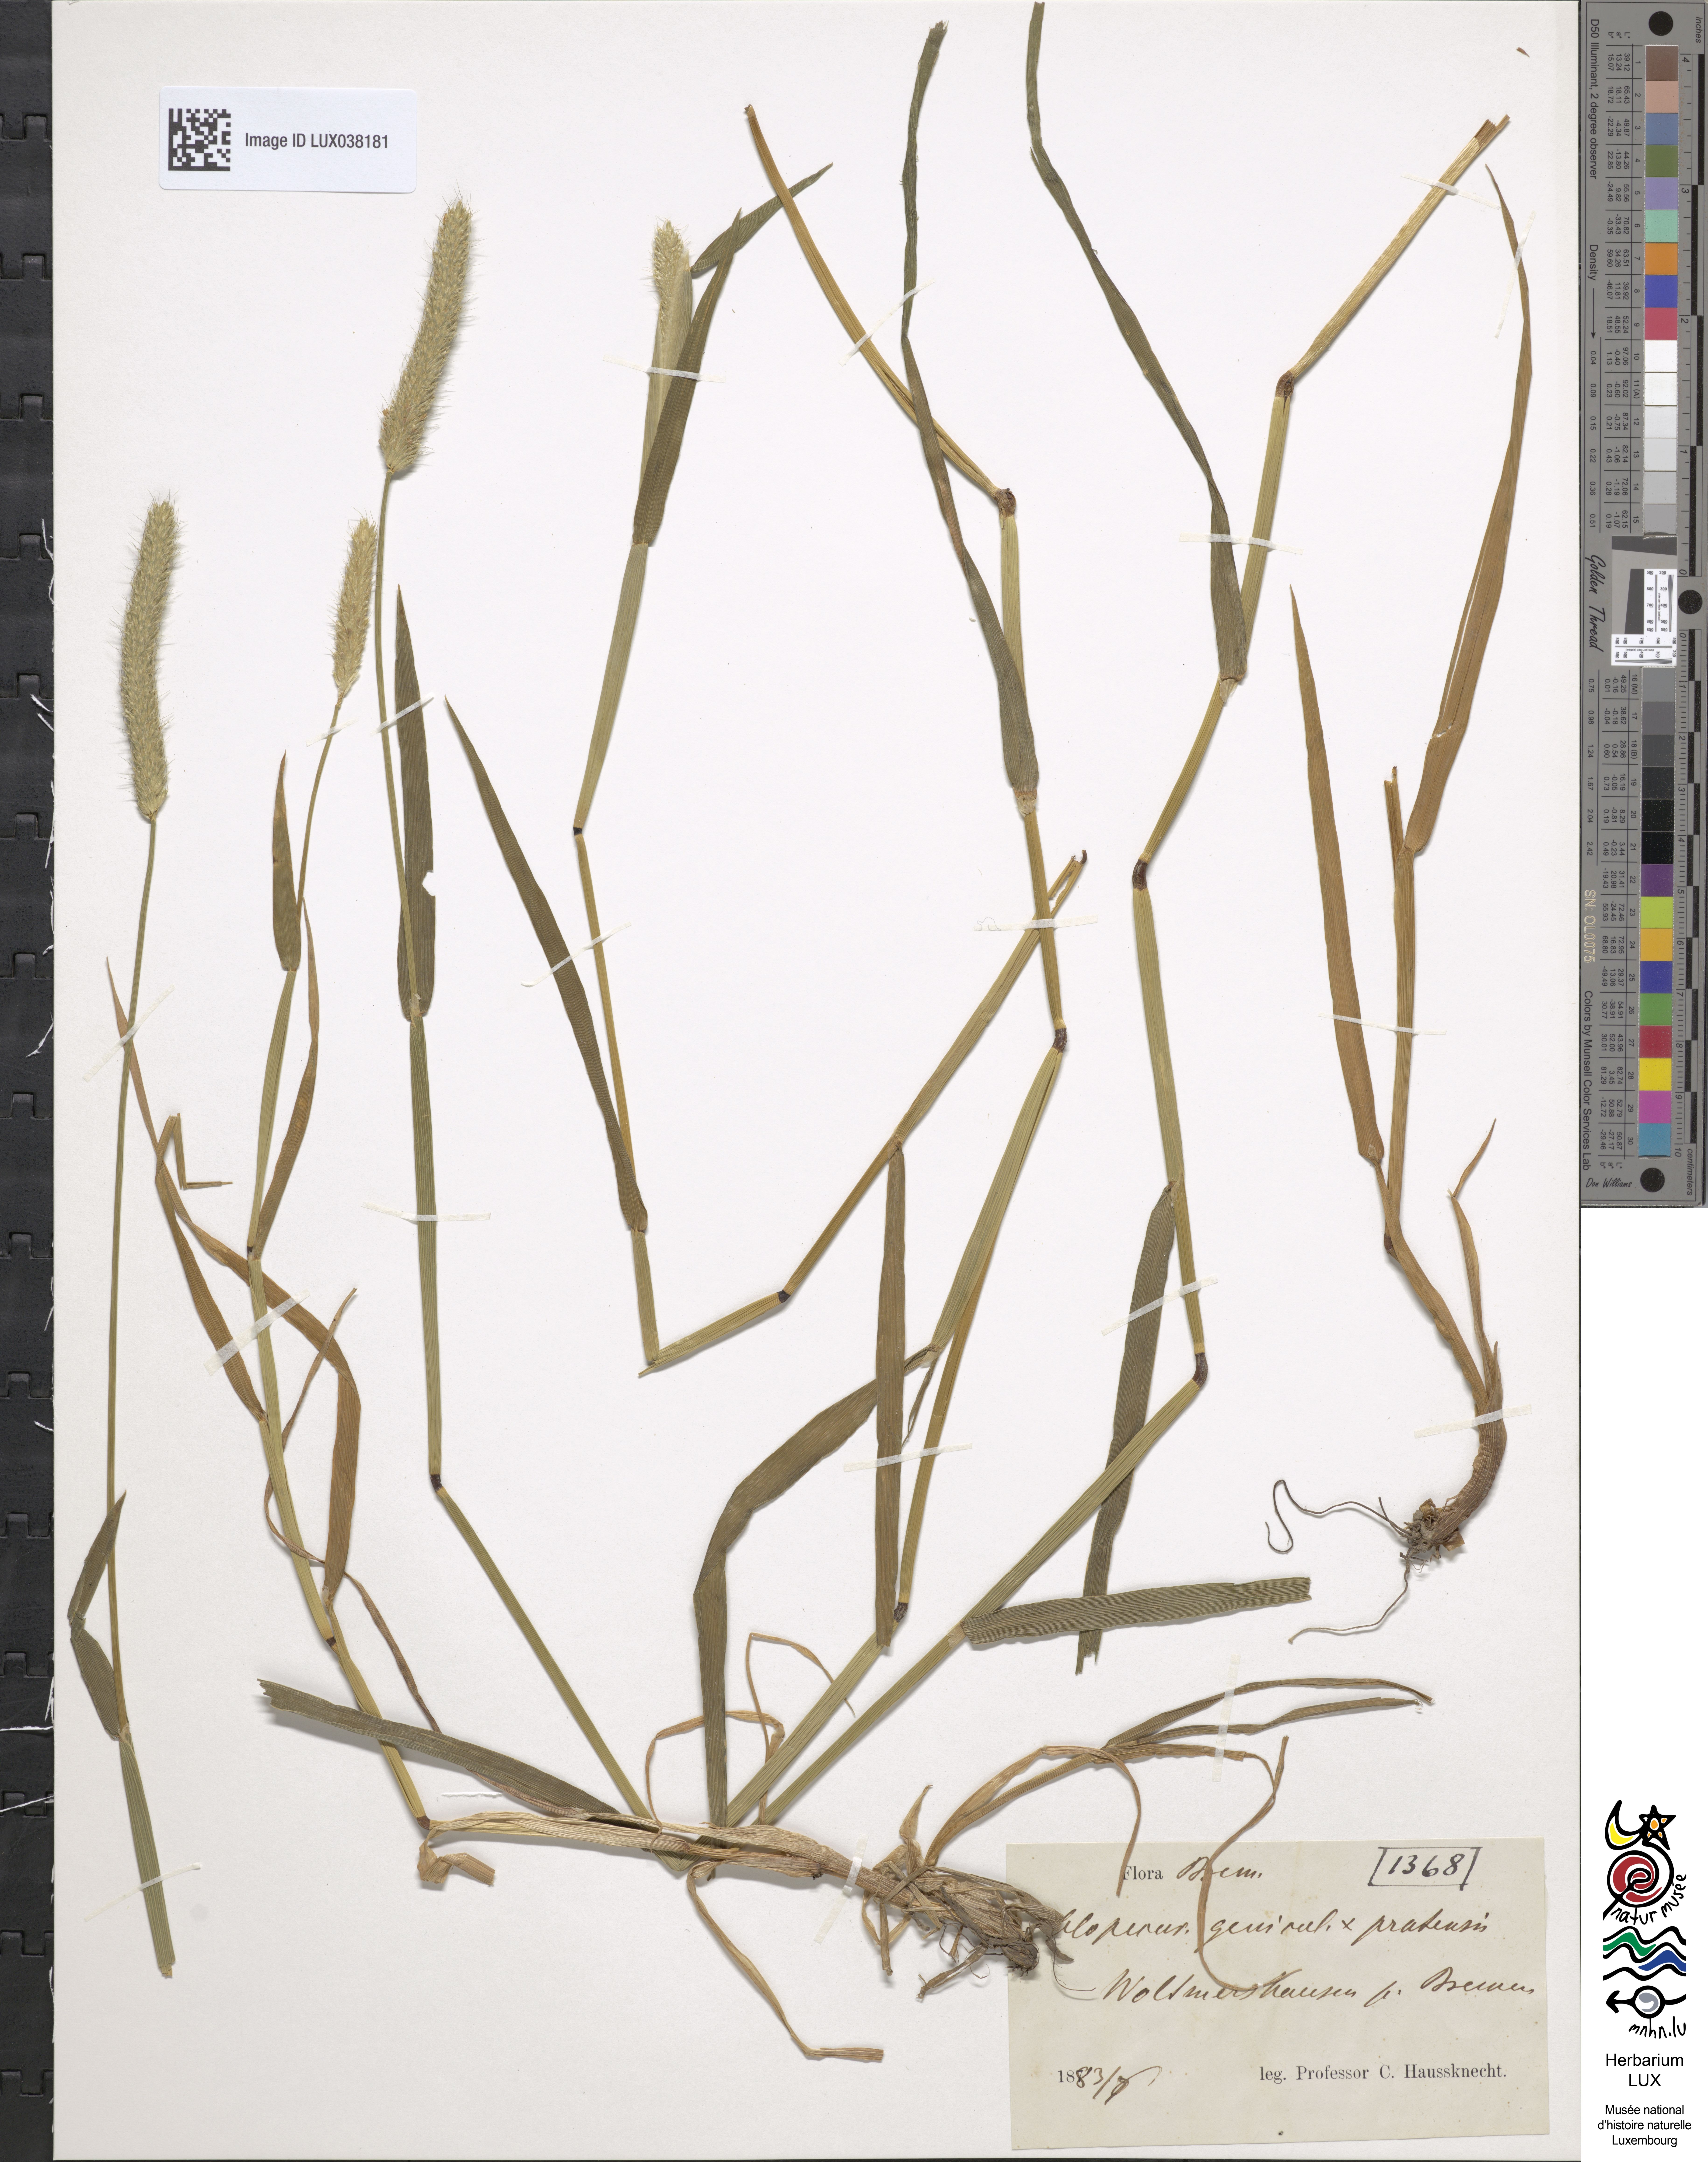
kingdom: Plantae
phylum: Tracheophyta
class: Liliopsida
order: Poales
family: Poaceae
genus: Alopecurus
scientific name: Alopecurus brachystylus
